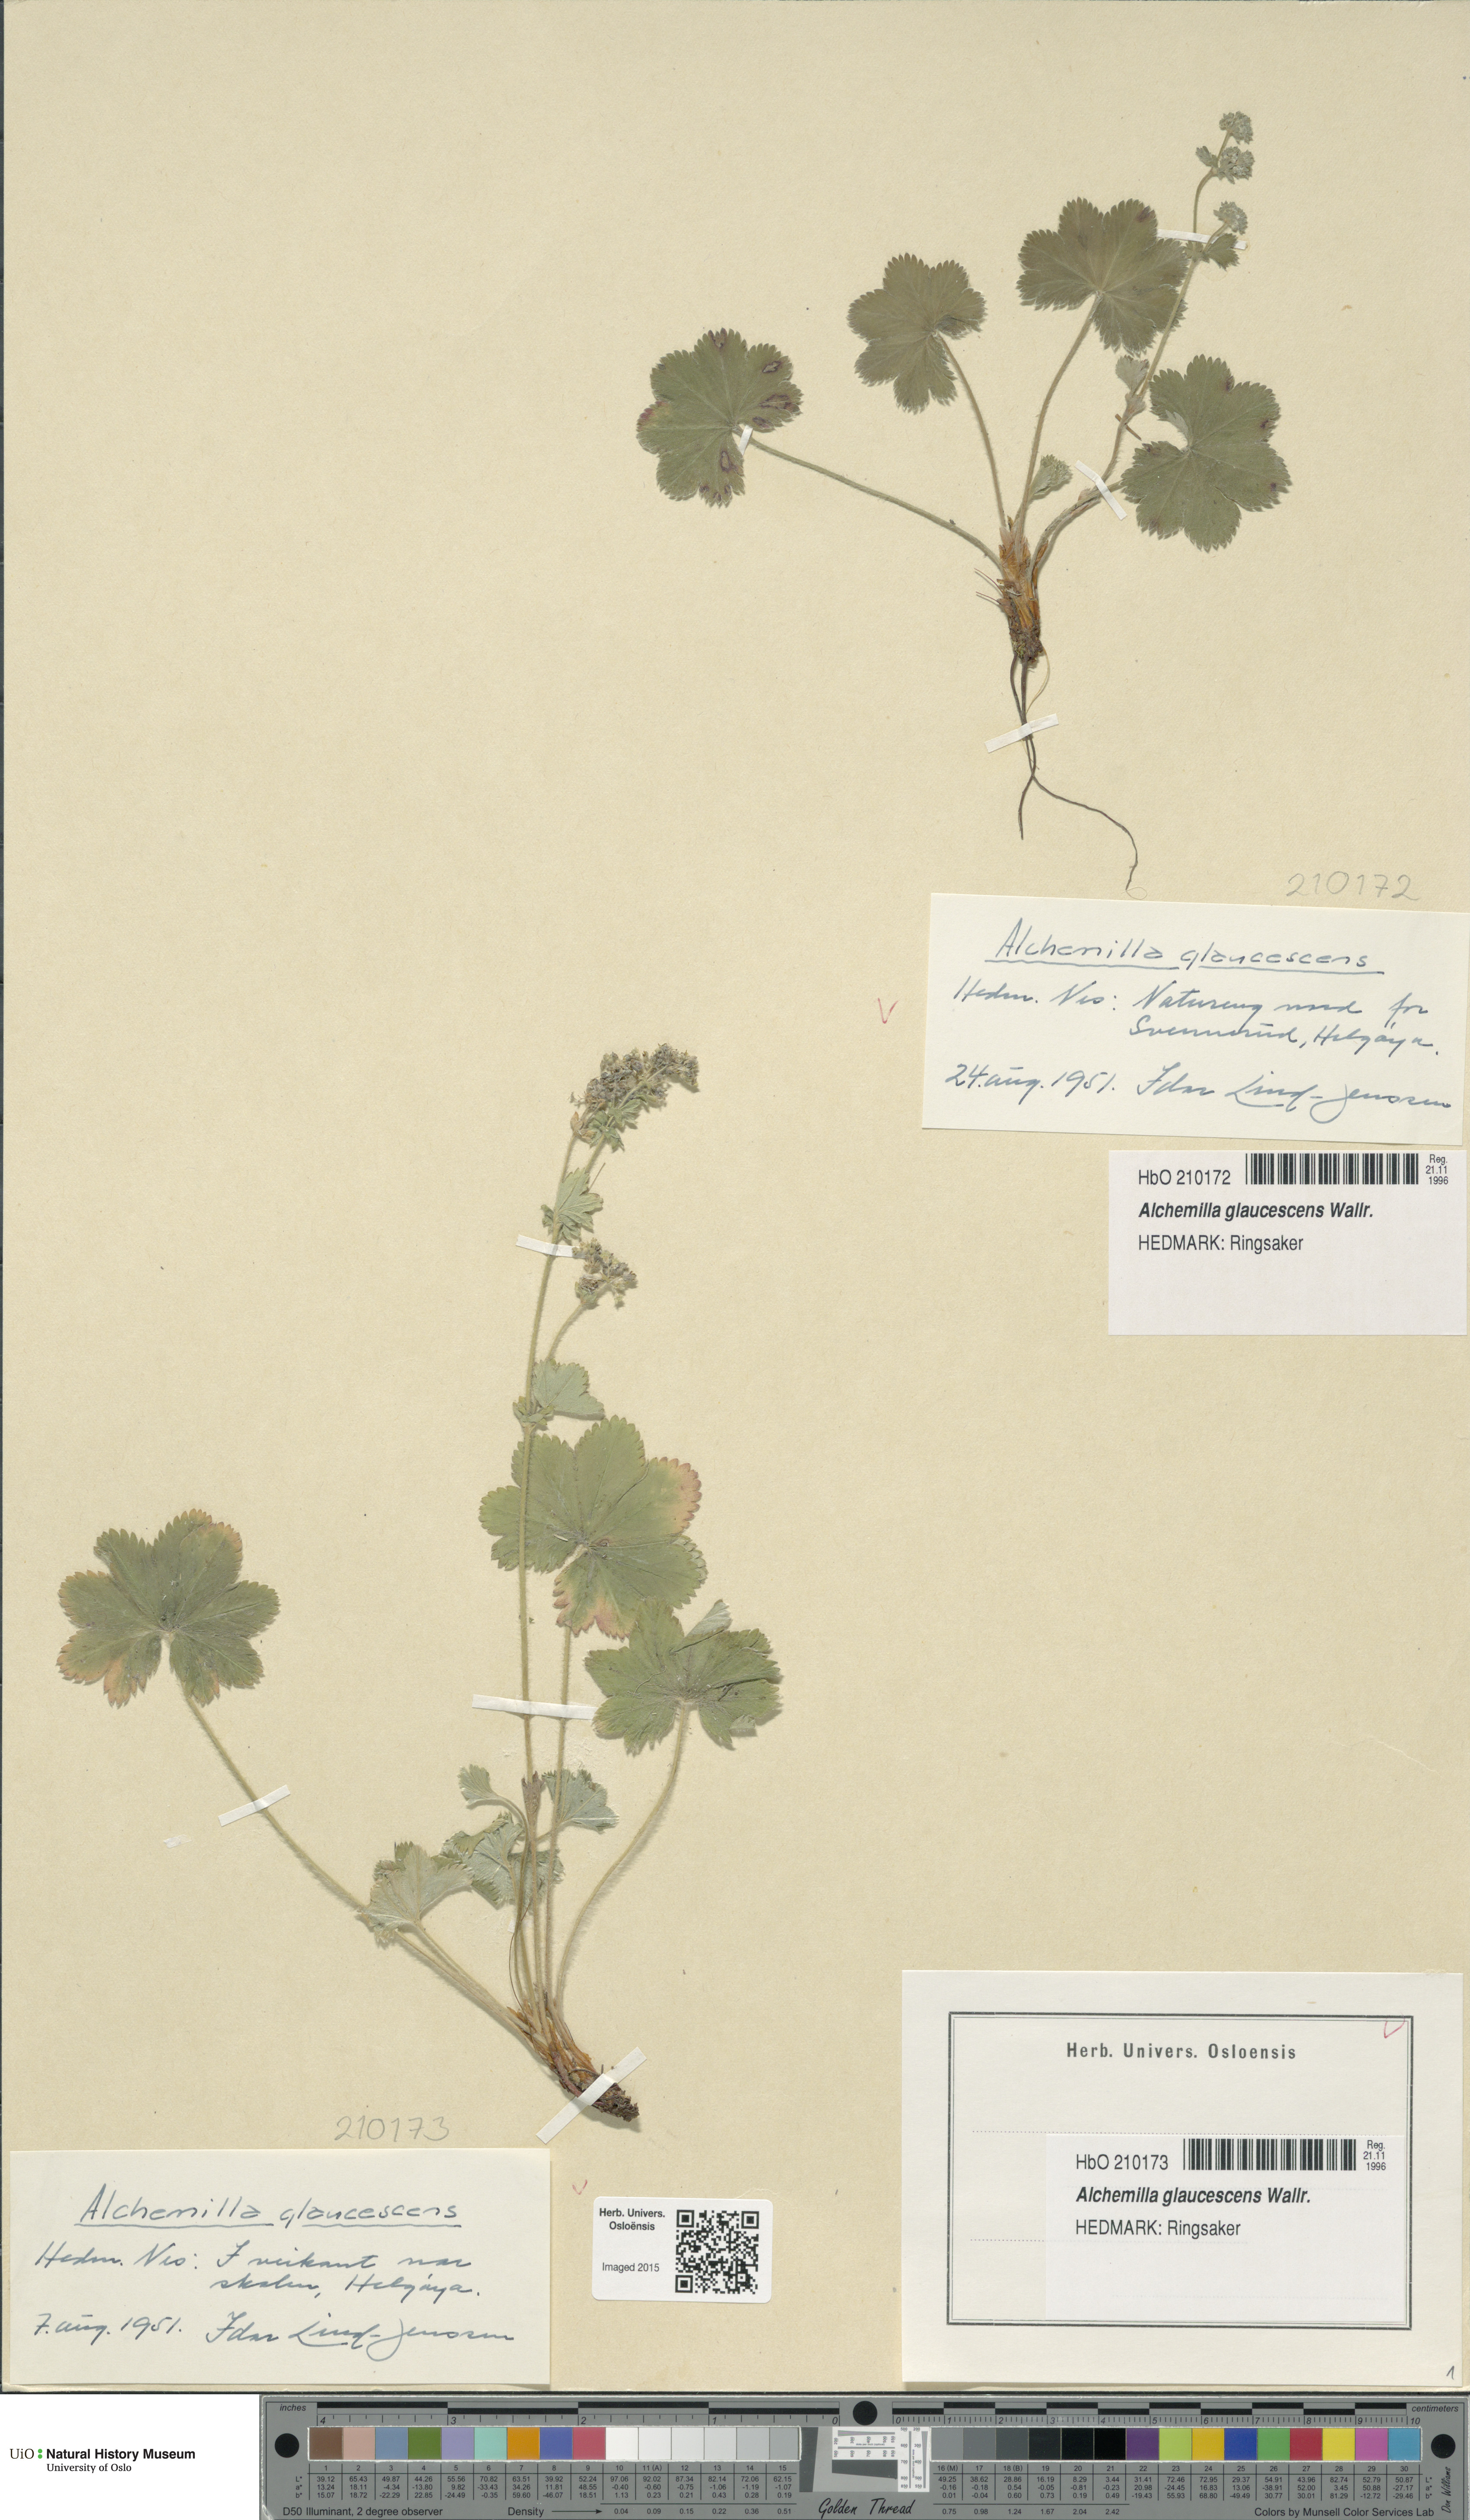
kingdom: Plantae
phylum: Tracheophyta
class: Magnoliopsida
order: Rosales
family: Rosaceae
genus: Alchemilla
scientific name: Alchemilla glaucescens
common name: Silky lady's mantle
